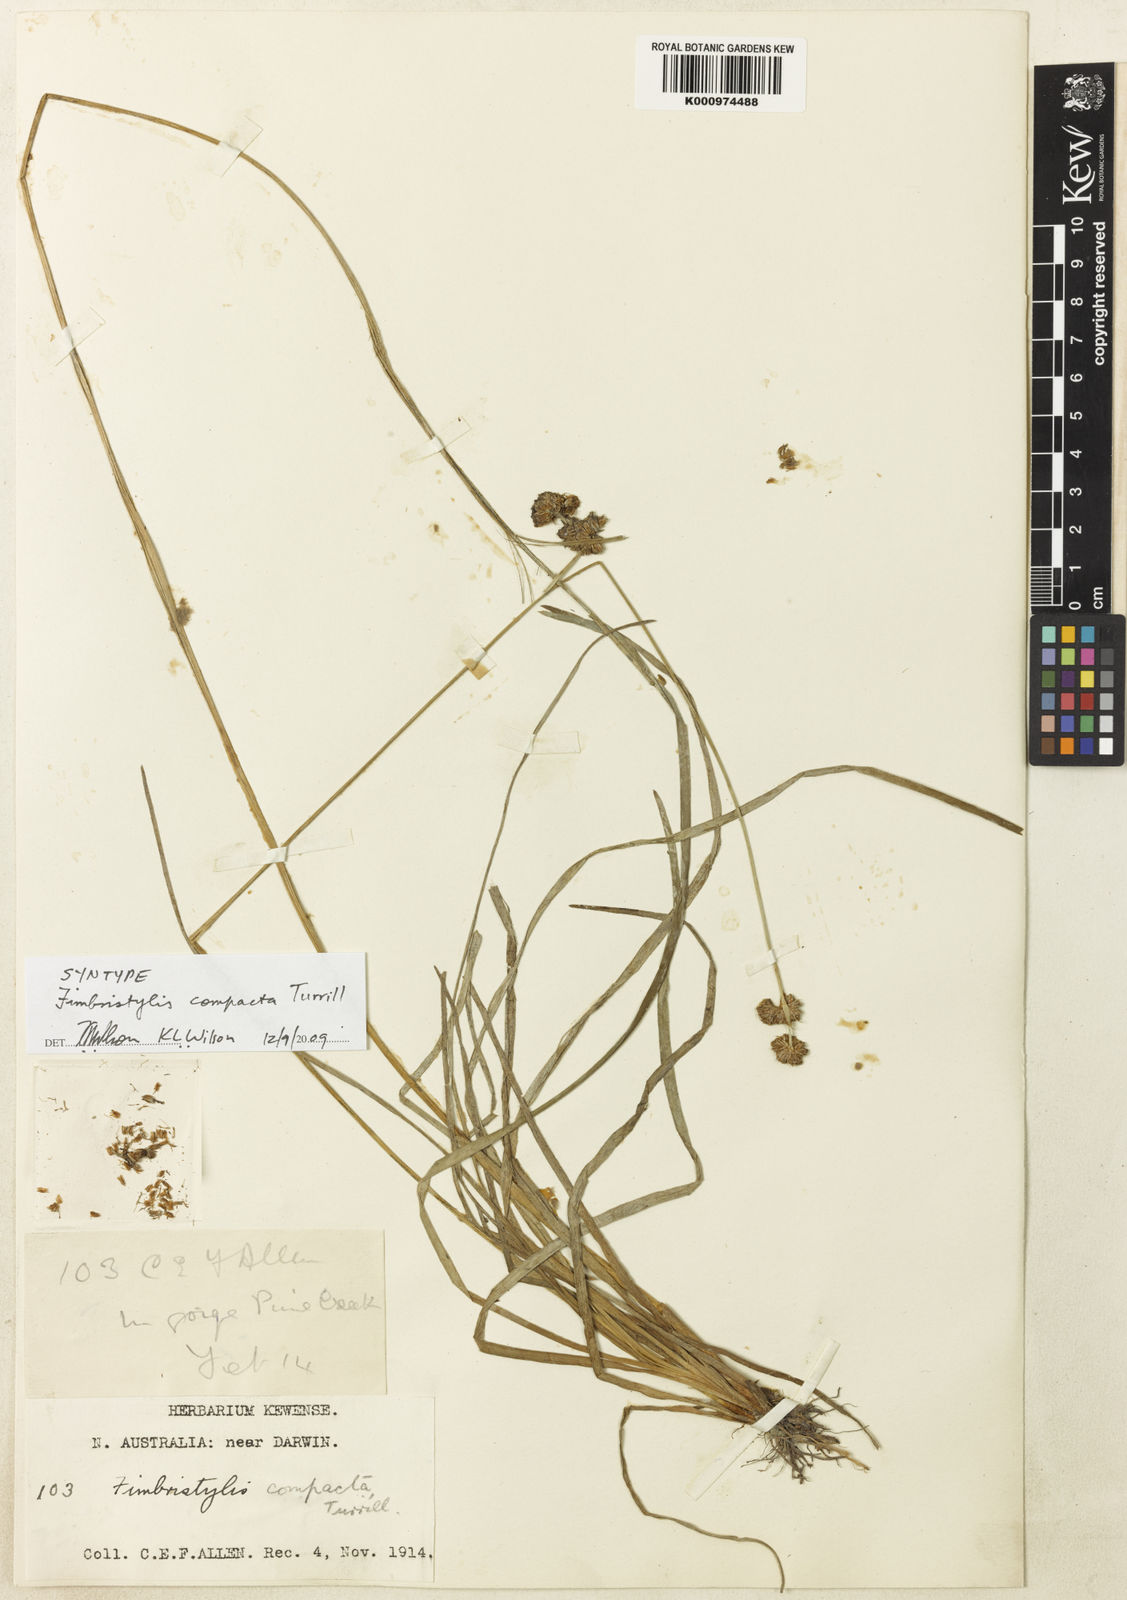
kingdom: Plantae
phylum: Tracheophyta
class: Liliopsida
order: Poales
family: Cyperaceae
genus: Fimbristylis
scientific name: Fimbristylis compacta
